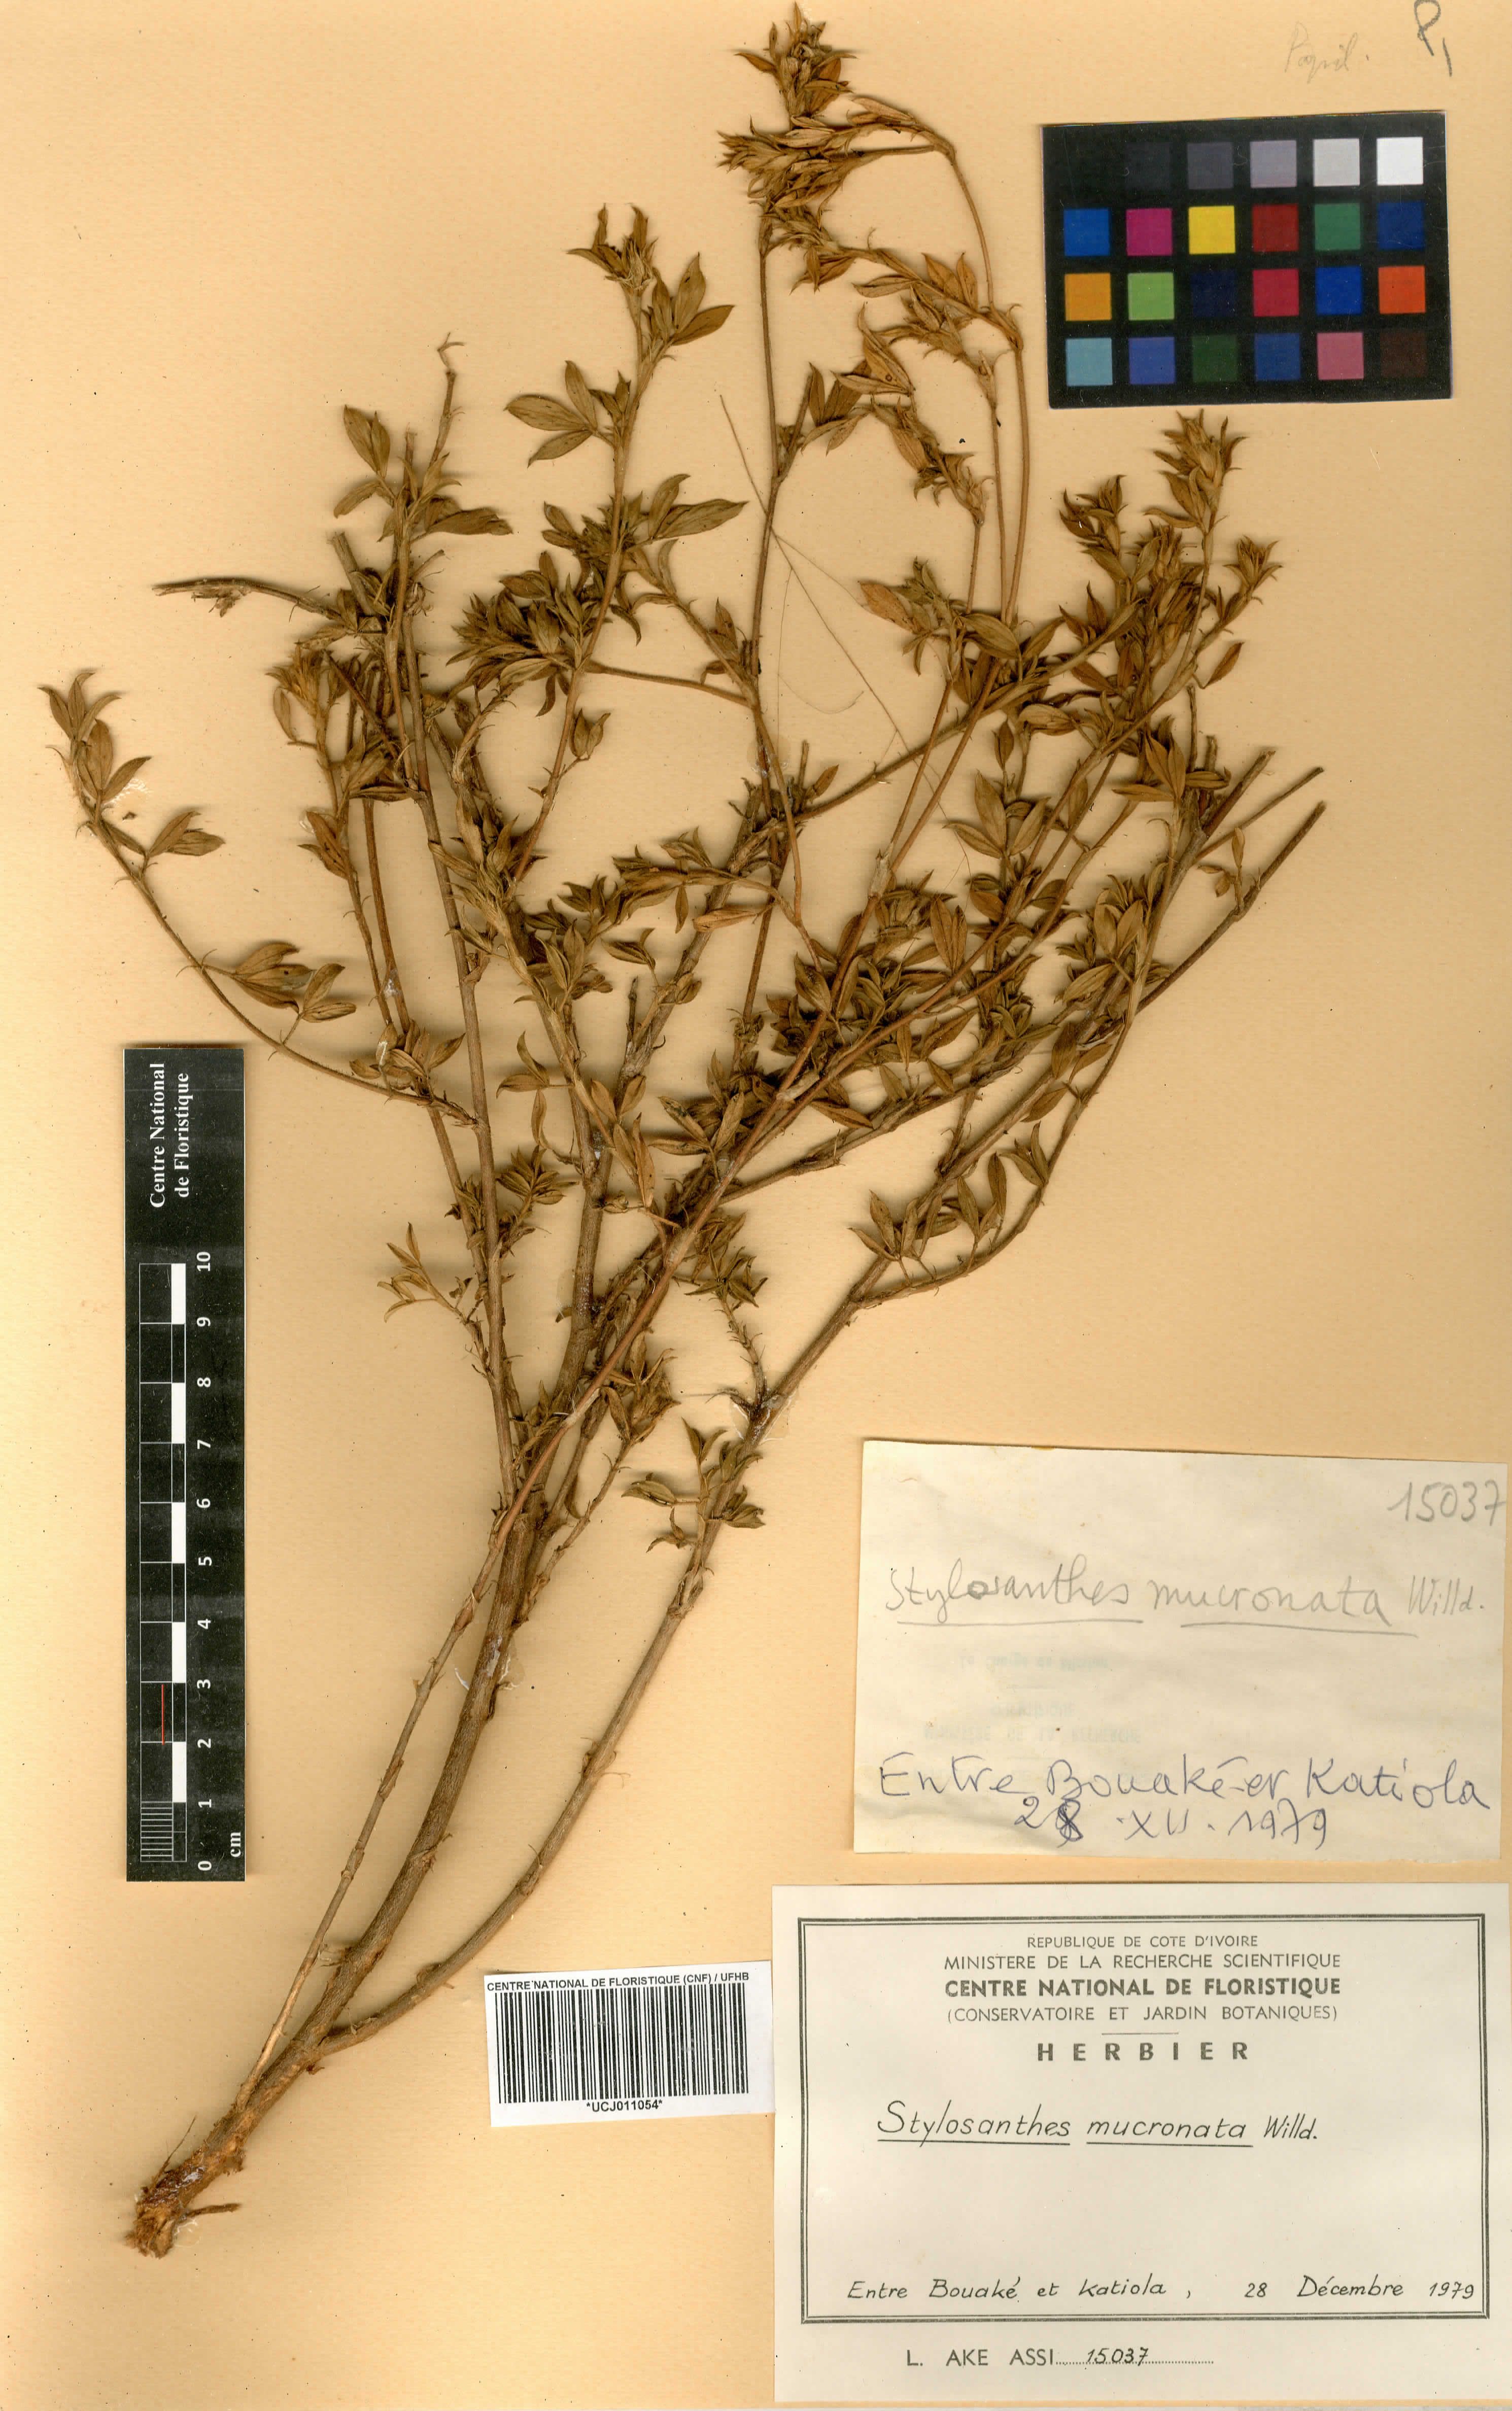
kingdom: Plantae
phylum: Tracheophyta
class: Magnoliopsida
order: Fabales
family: Fabaceae
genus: Stylosanthes
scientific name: Stylosanthes fruticosa
